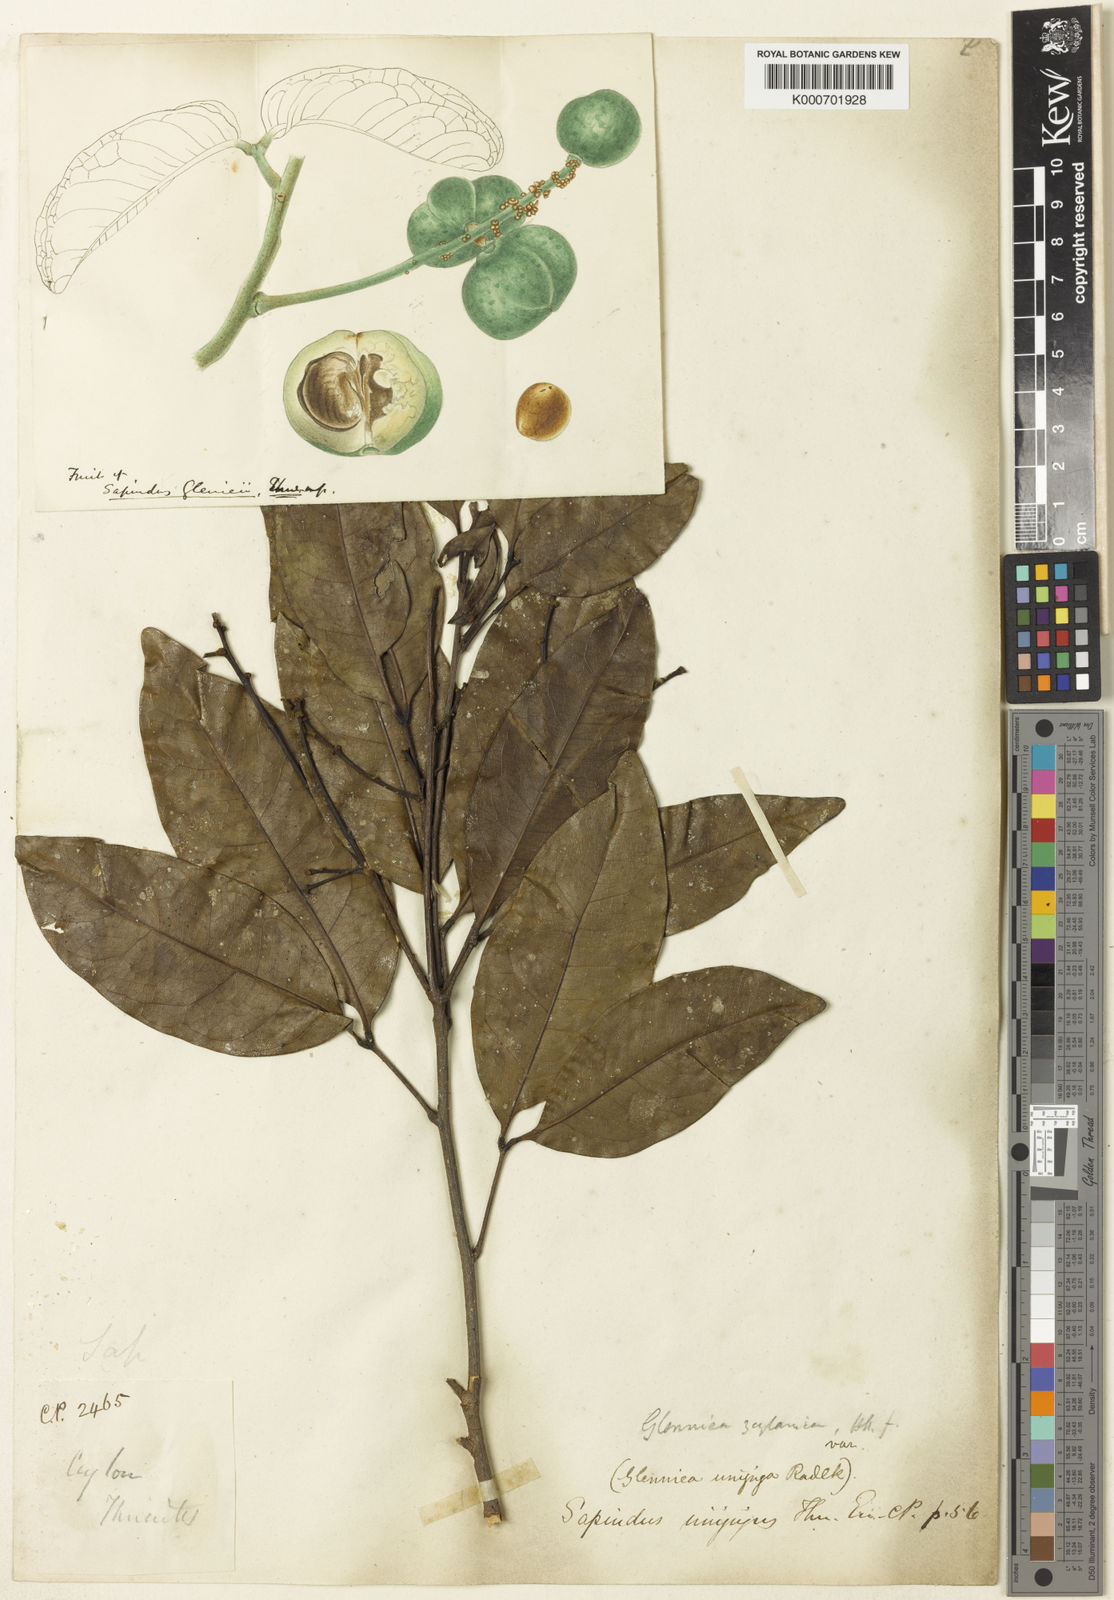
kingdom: Plantae
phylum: Tracheophyta
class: Magnoliopsida
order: Sapindales
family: Sapindaceae
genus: Glenniea
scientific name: Glenniea unijuga
